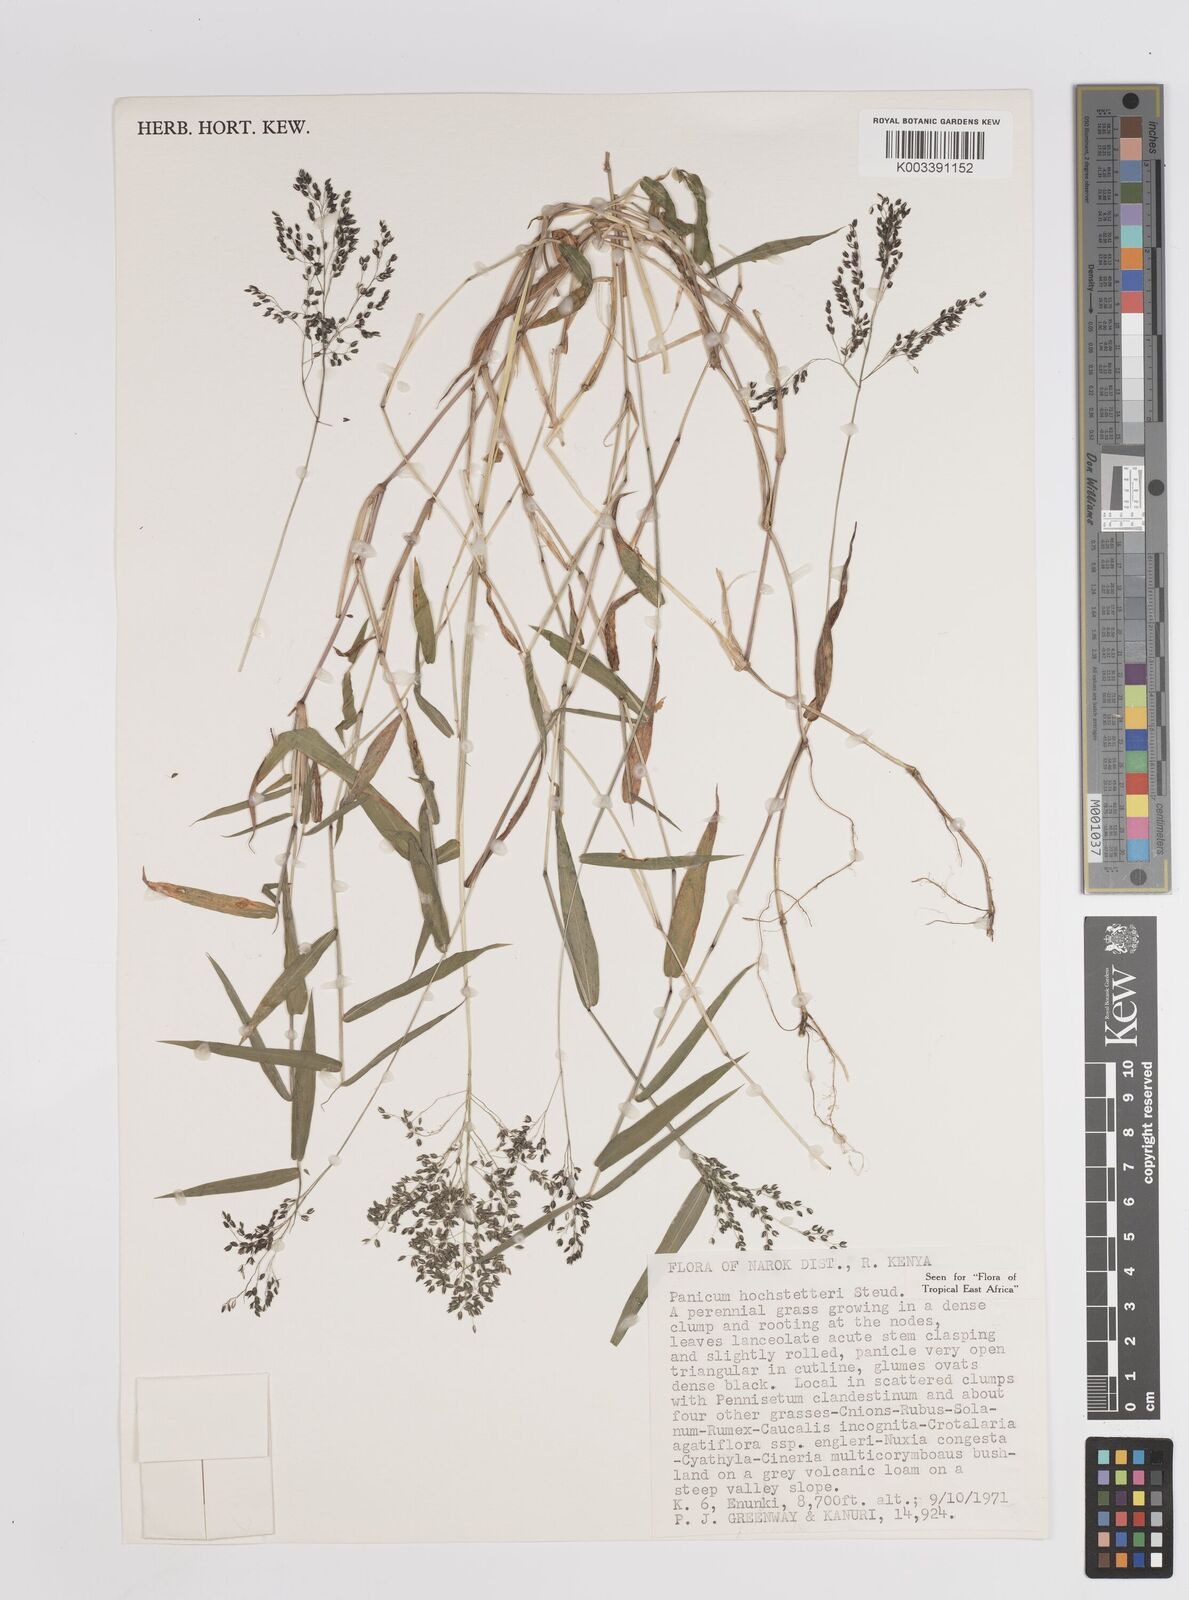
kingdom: Plantae
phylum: Tracheophyta
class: Liliopsida
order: Poales
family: Poaceae
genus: Panicum
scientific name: Panicum hochstetteri
